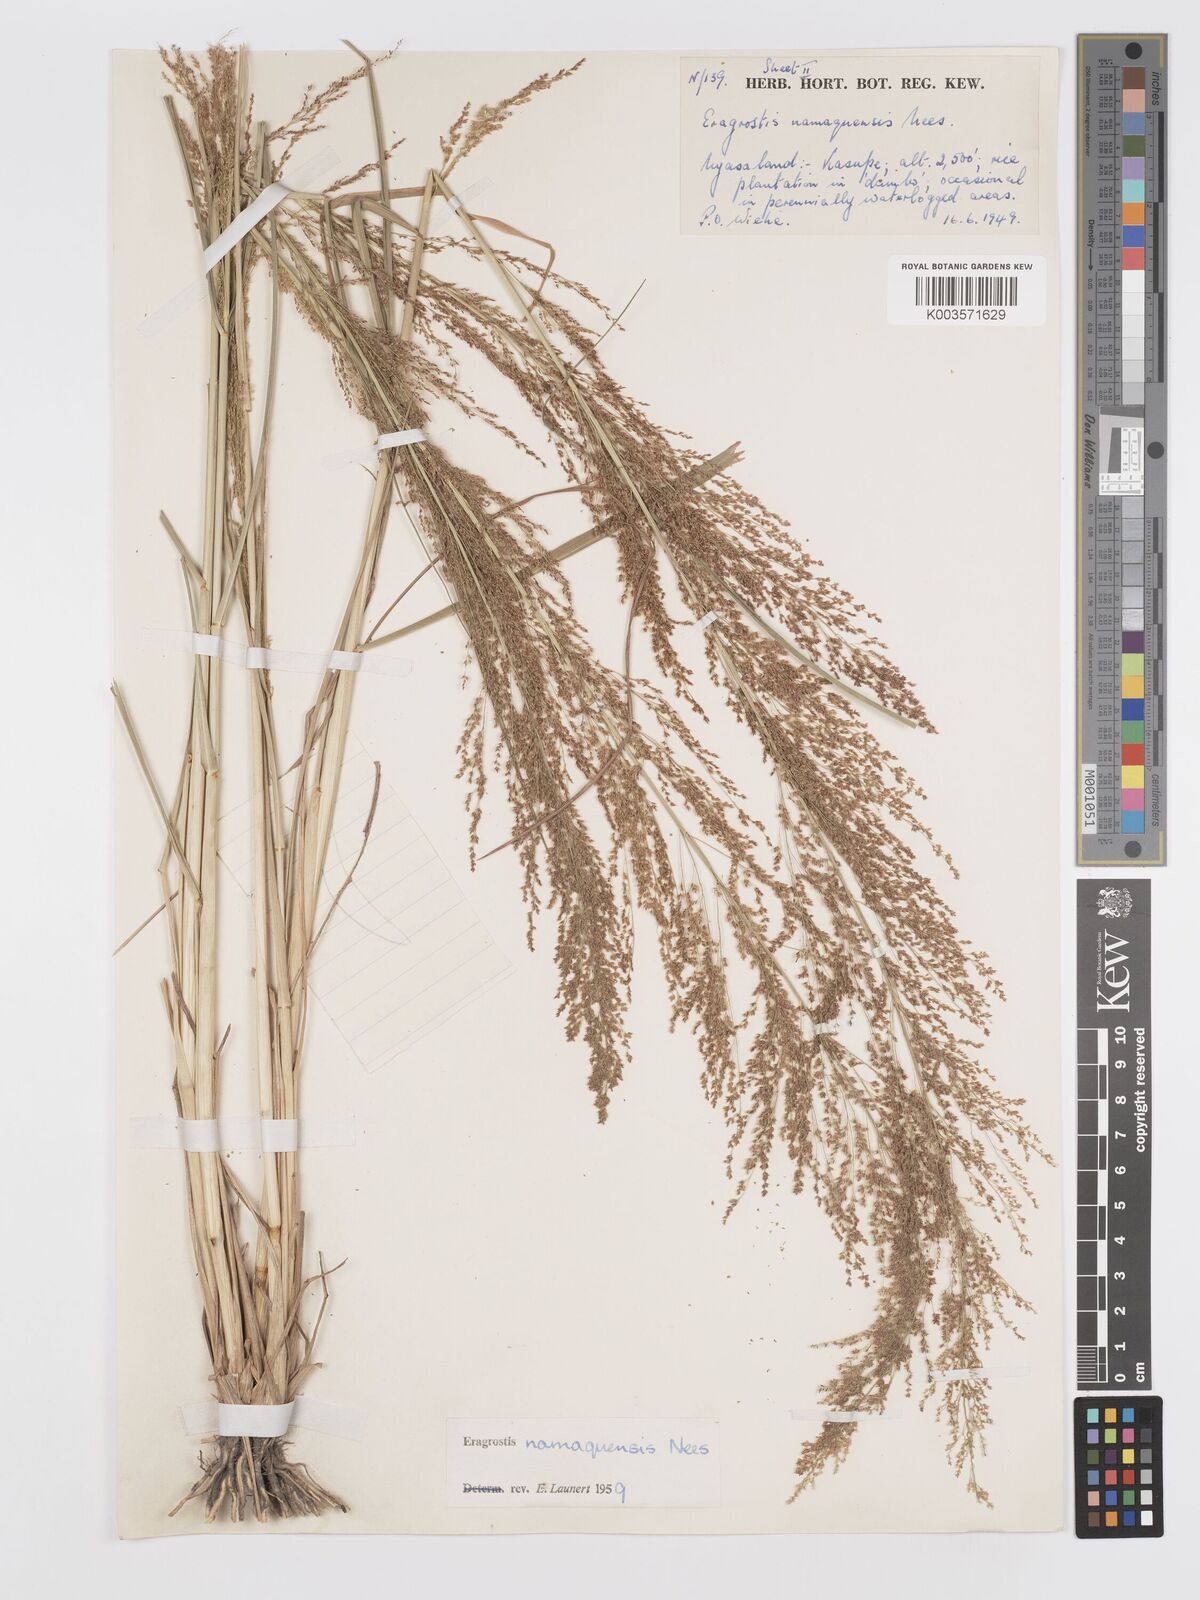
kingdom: Plantae
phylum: Tracheophyta
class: Liliopsida
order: Poales
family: Poaceae
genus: Eragrostis
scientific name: Eragrostis japonica
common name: Pond lovegrass
